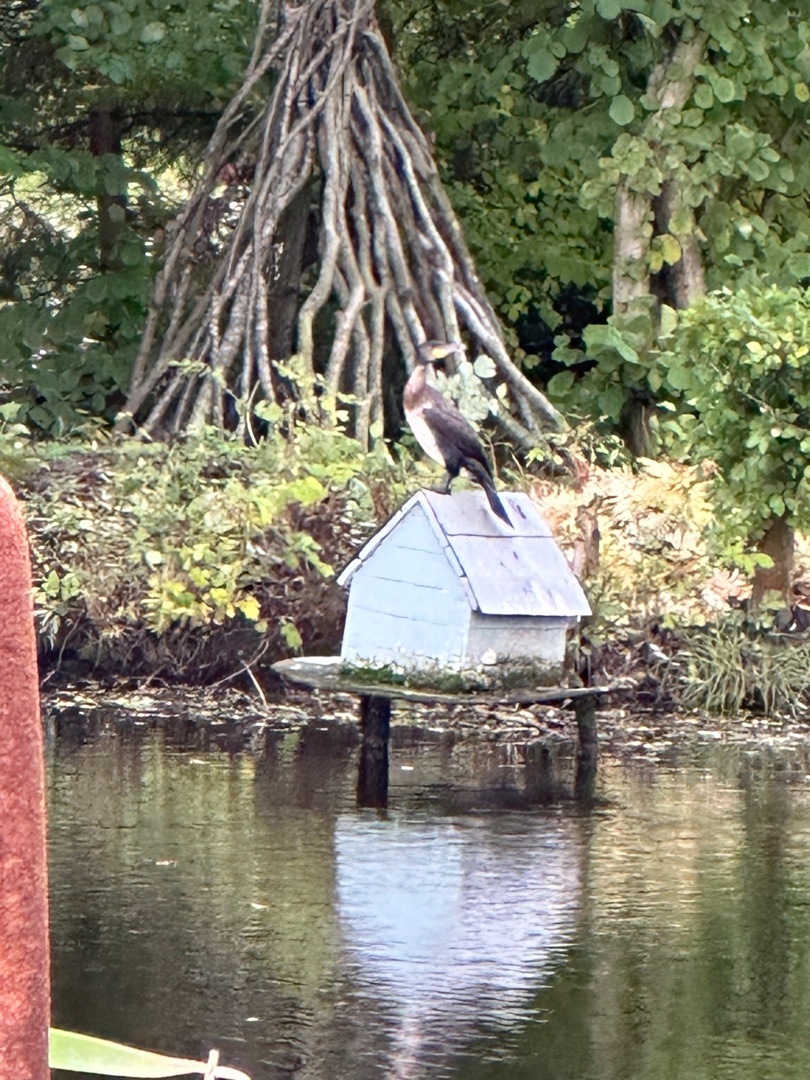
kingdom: Animalia
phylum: Chordata
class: Aves
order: Suliformes
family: Phalacrocoracidae
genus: Phalacrocorax
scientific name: Phalacrocorax carbo
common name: Skarv
